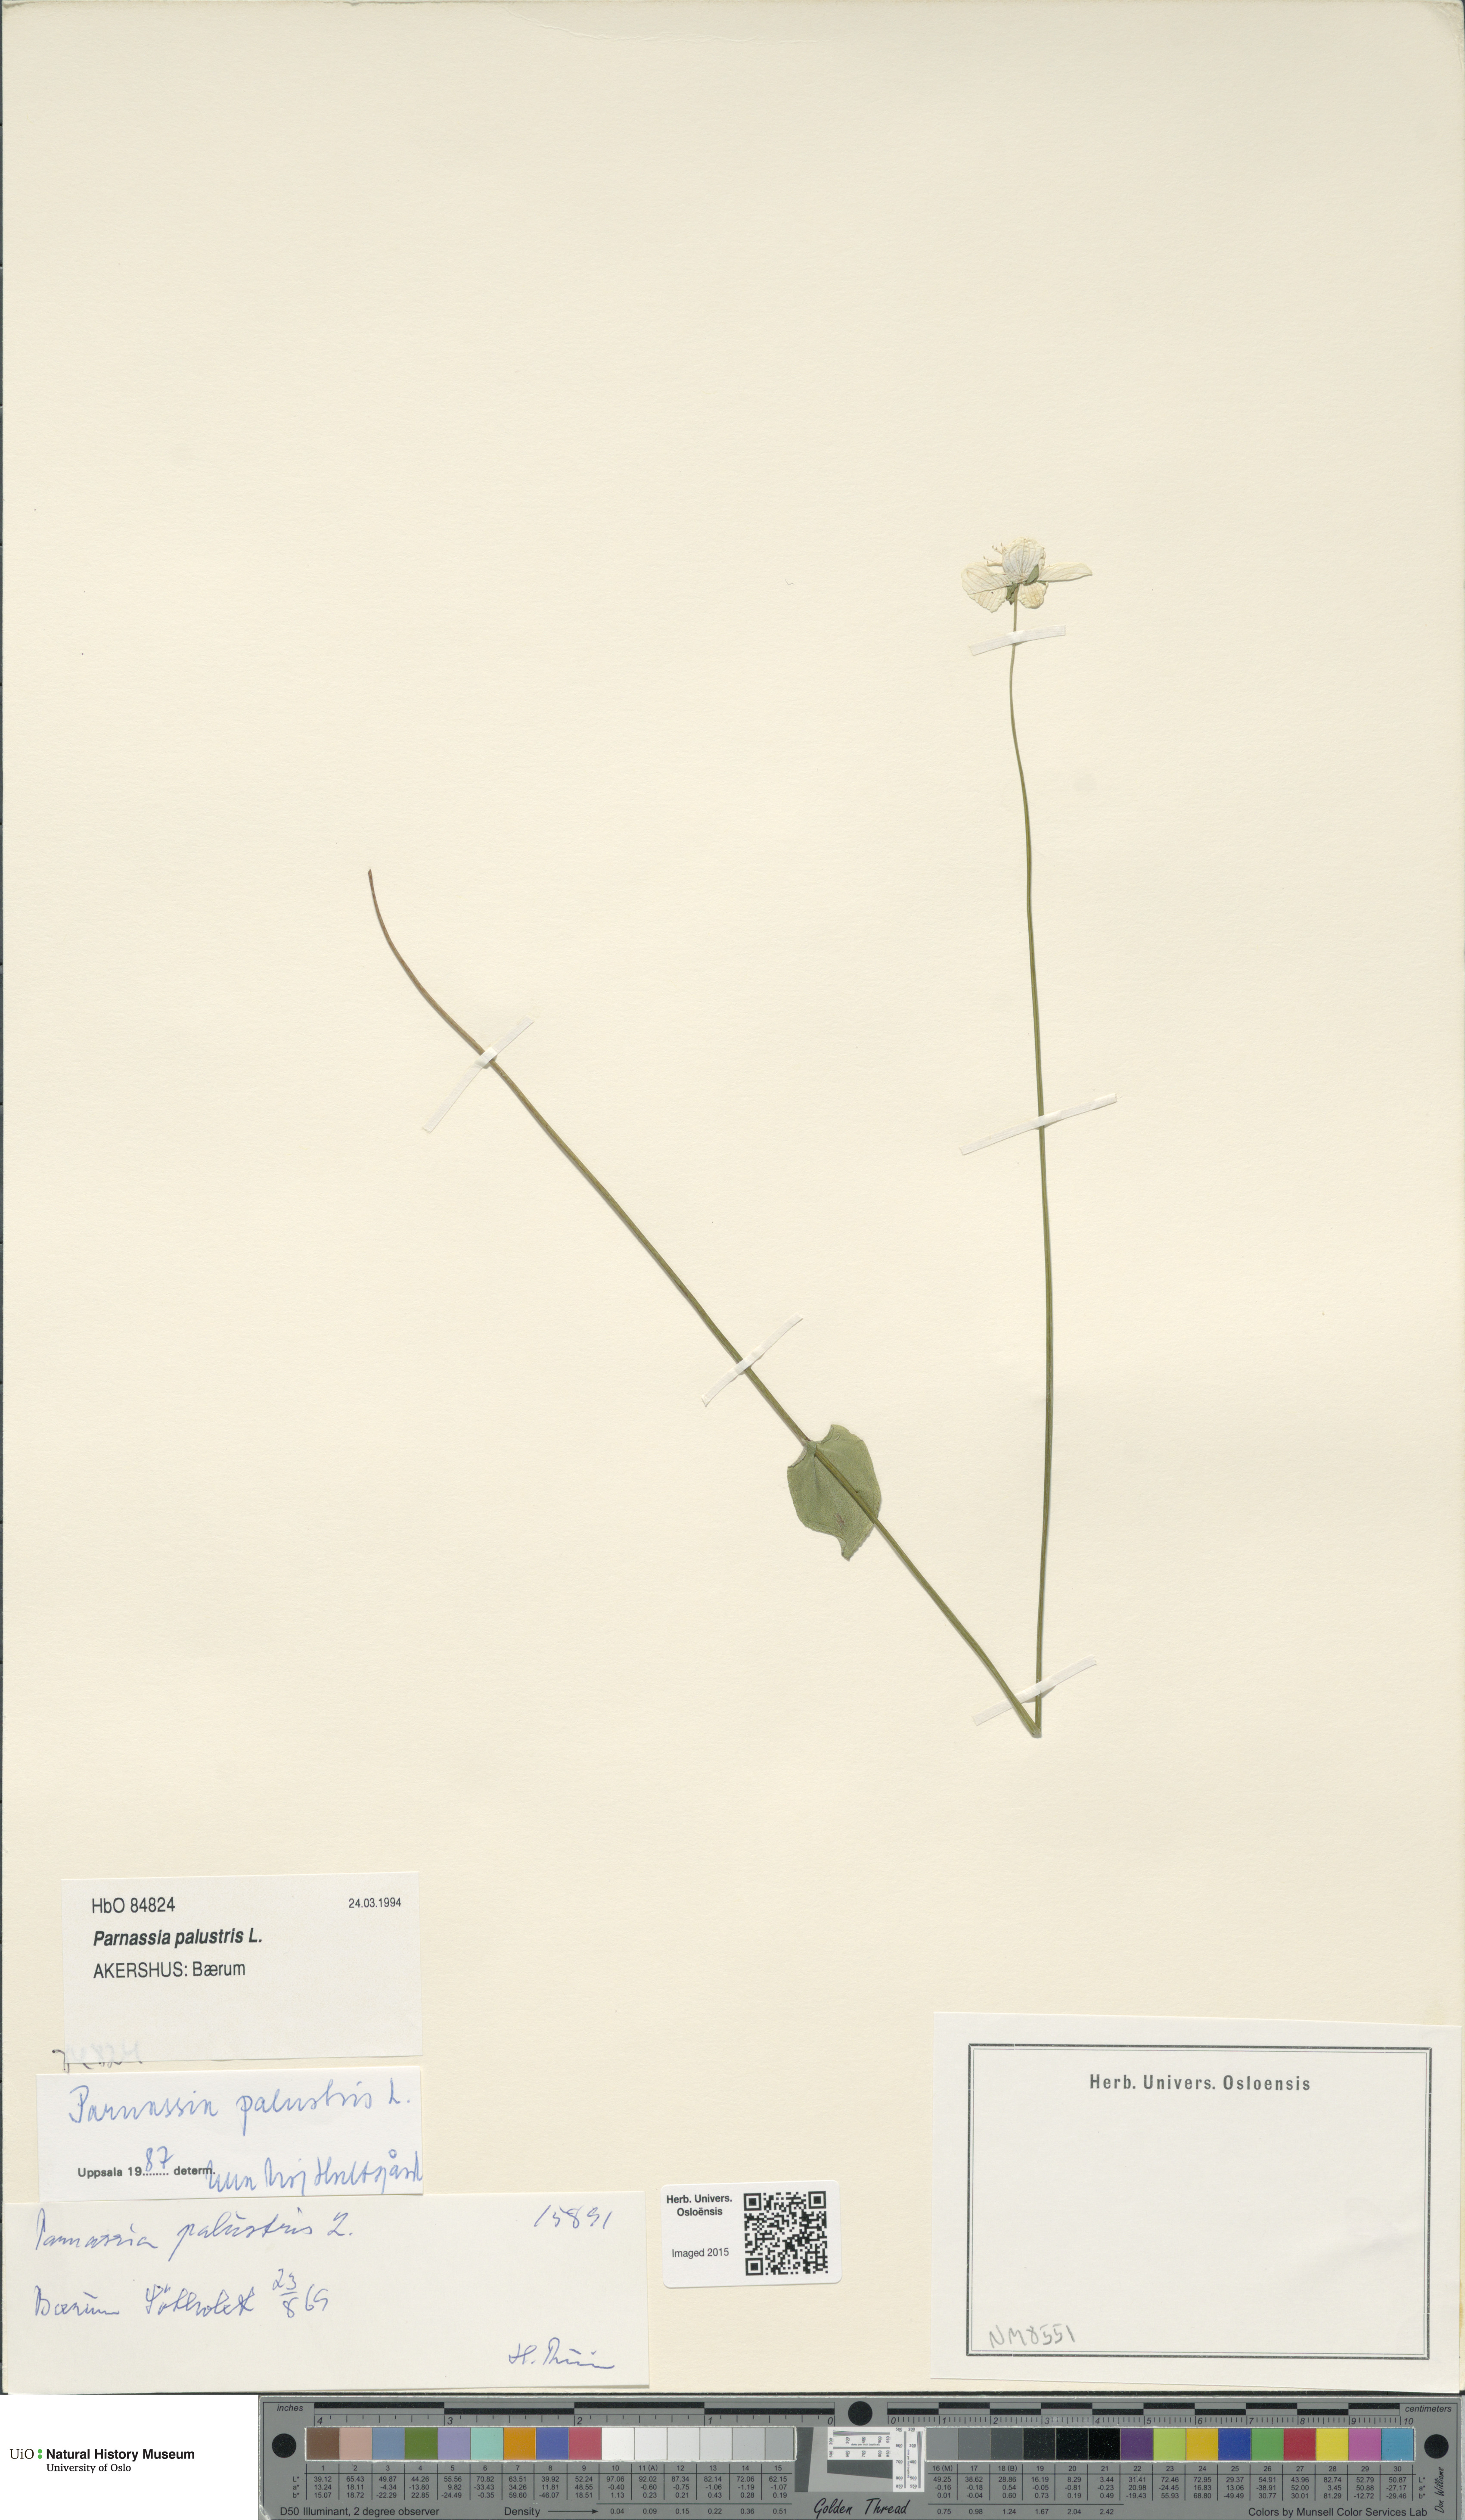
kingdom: Plantae
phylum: Tracheophyta
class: Magnoliopsida
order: Celastrales
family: Parnassiaceae
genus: Parnassia
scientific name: Parnassia palustris
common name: Grass-of-parnassus
